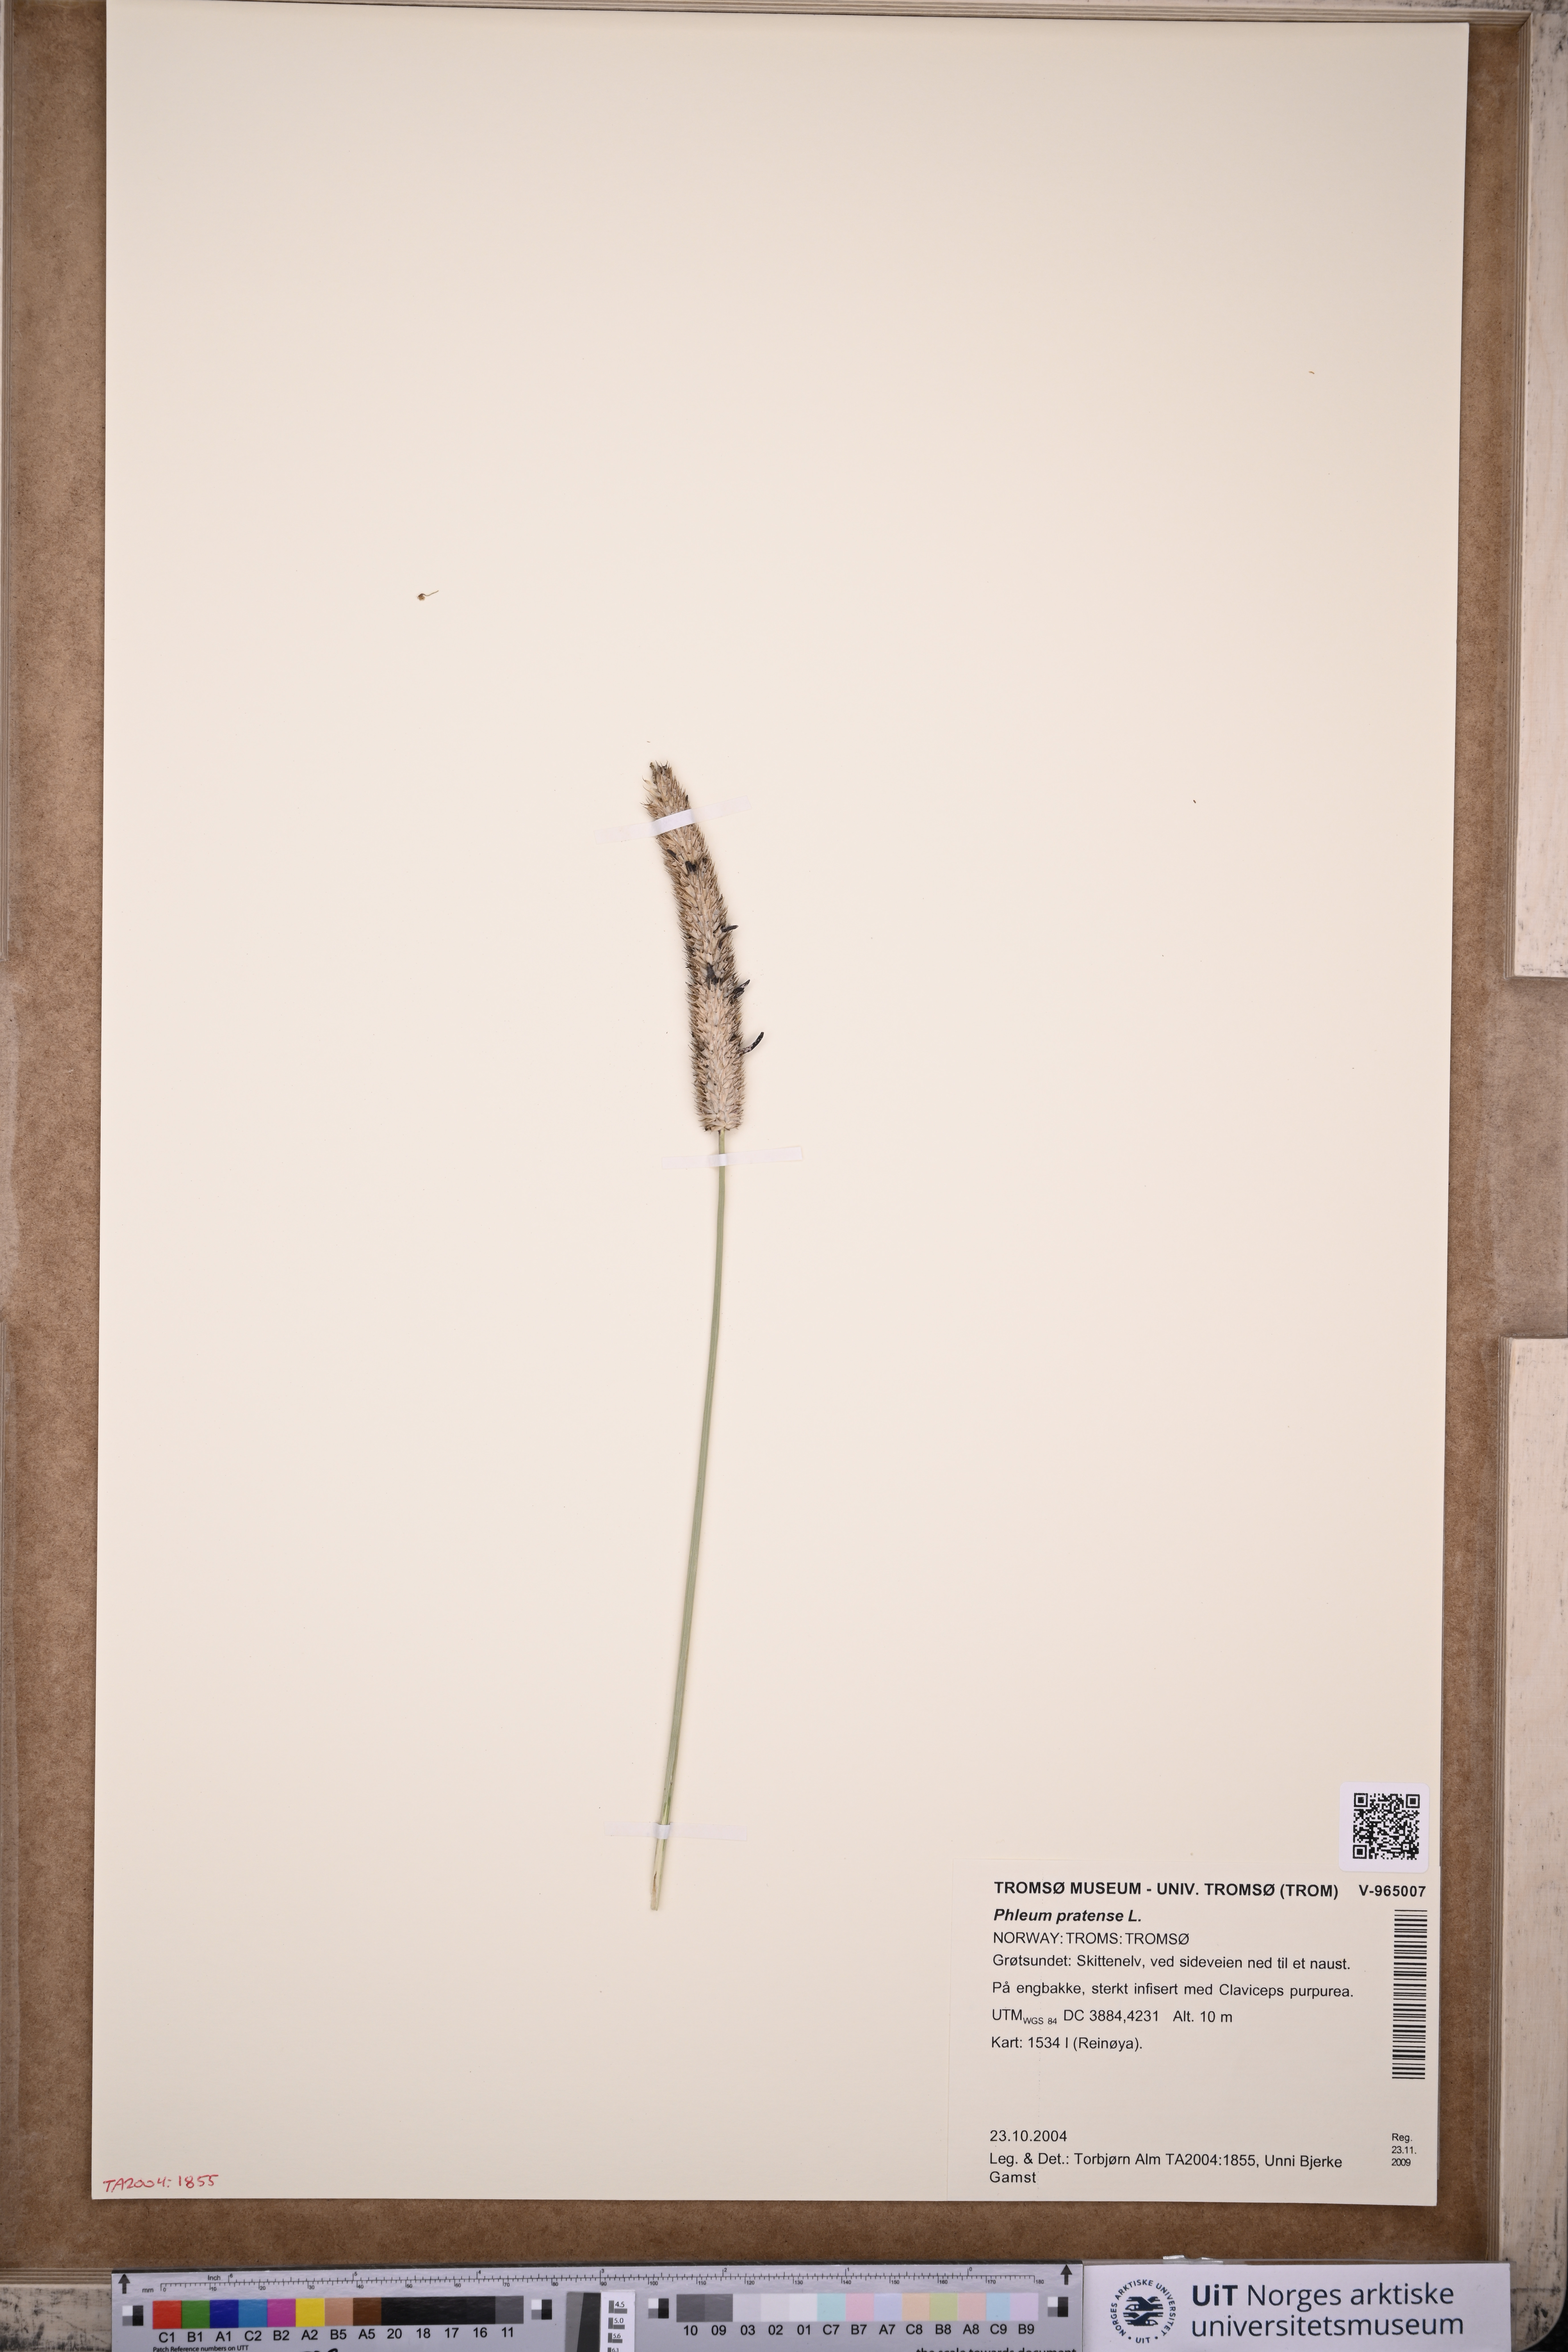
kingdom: Plantae
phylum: Tracheophyta
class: Liliopsida
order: Poales
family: Poaceae
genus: Phleum
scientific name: Phleum pratense
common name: Timothy grass
